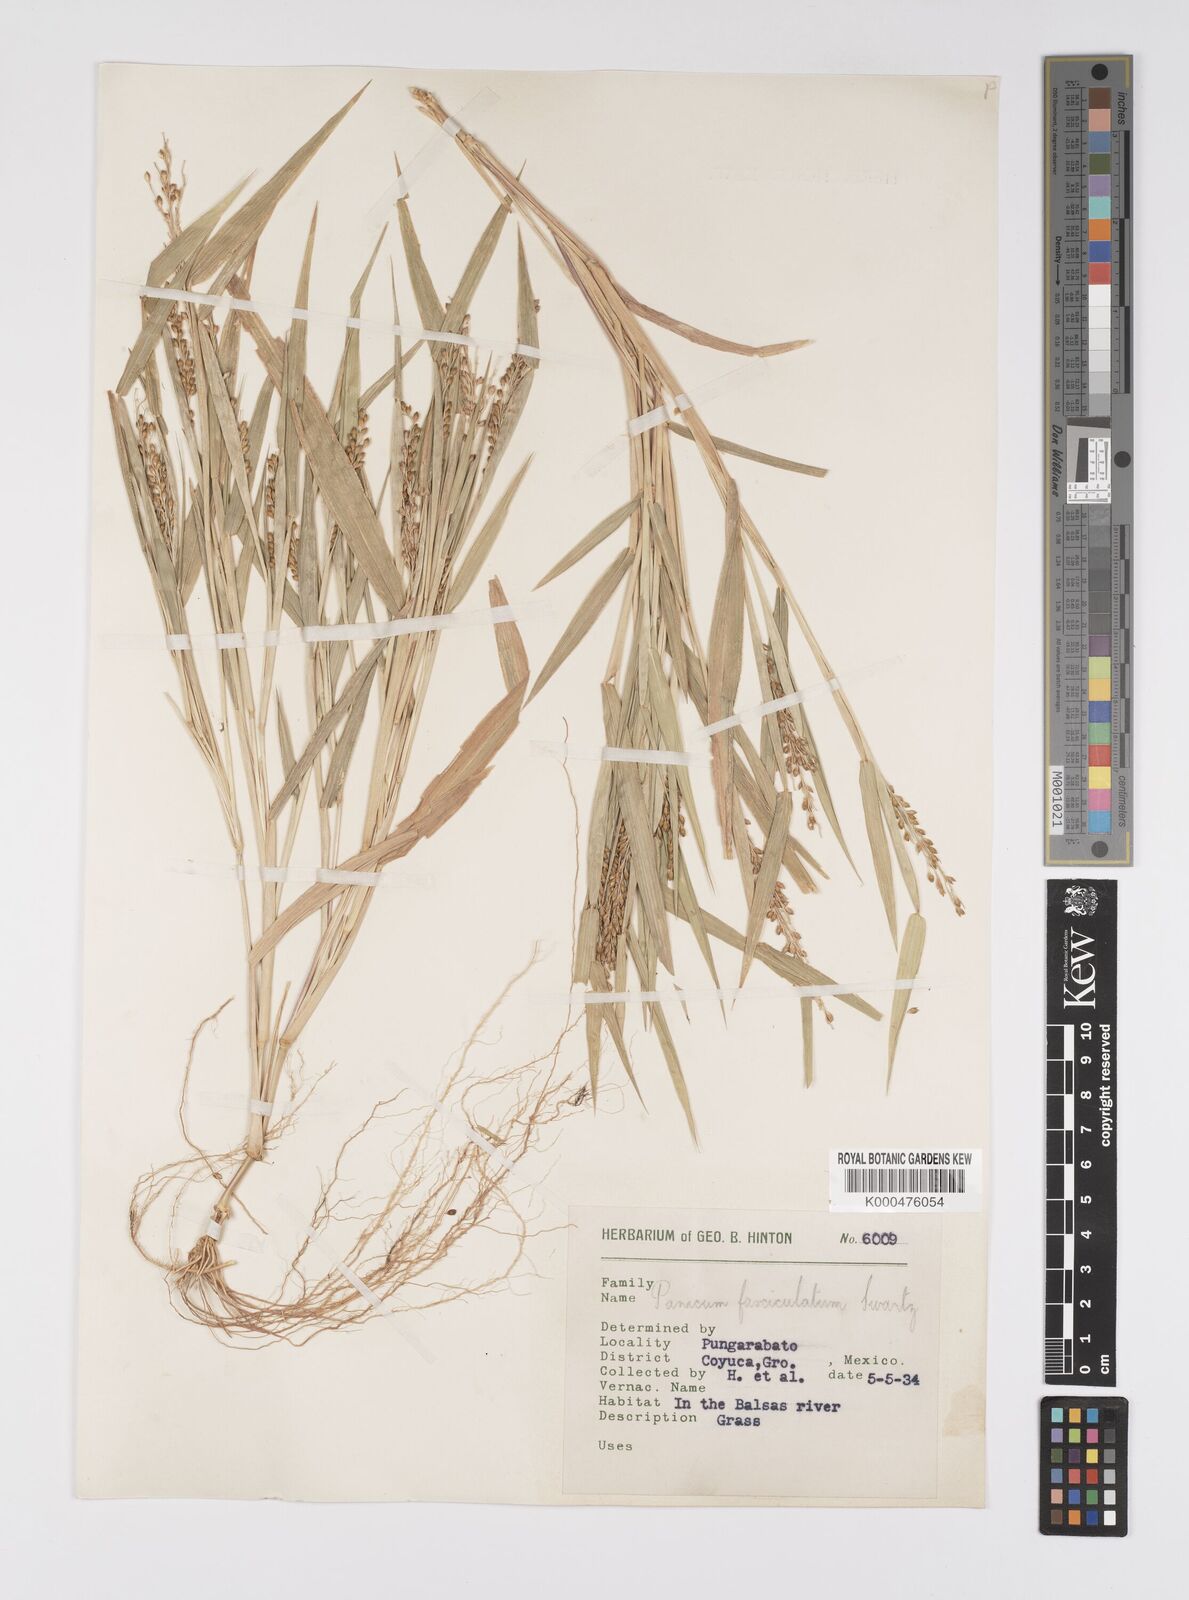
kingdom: Plantae
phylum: Tracheophyta
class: Liliopsida
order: Poales
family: Poaceae
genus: Urochloa
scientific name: Urochloa fusca
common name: Browntop signal grass
